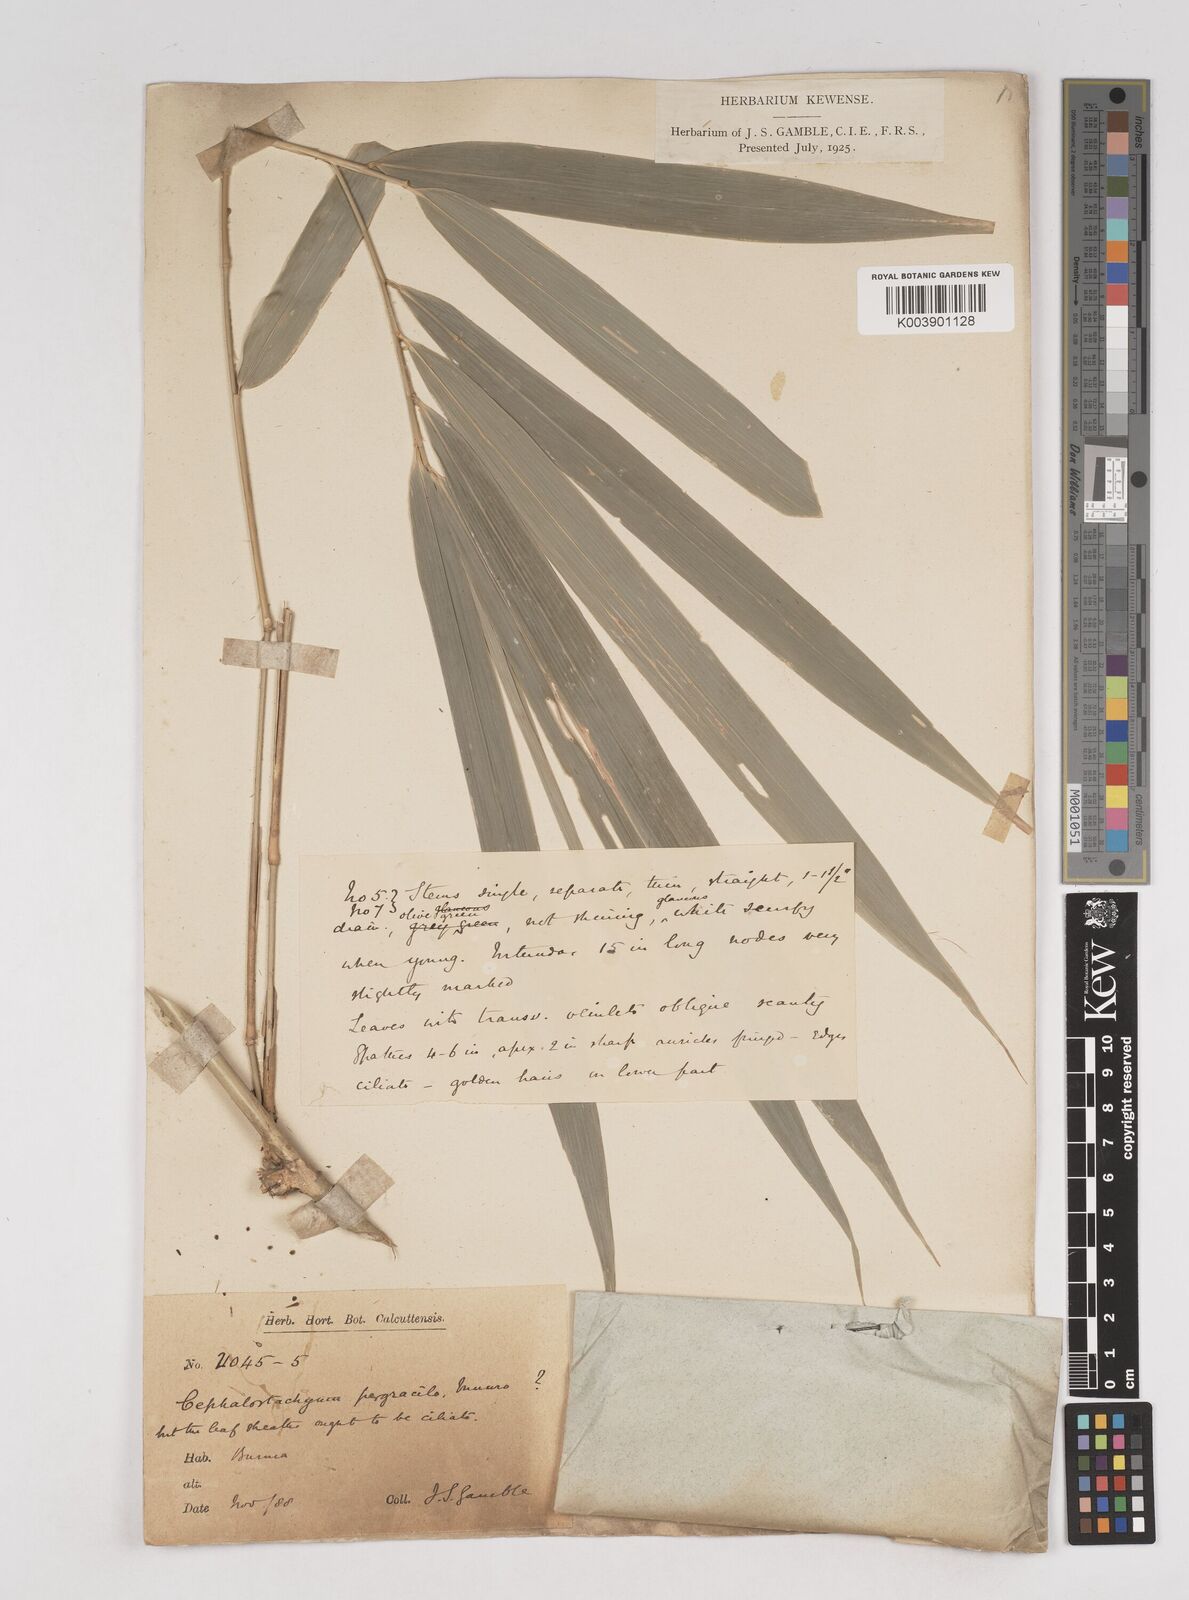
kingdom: Plantae
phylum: Tracheophyta
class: Liliopsida
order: Poales
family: Poaceae
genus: Cephalostachyum
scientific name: Cephalostachyum
